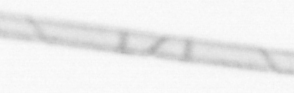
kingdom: Chromista
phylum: Ochrophyta
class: Bacillariophyceae
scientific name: Bacillariophyceae
